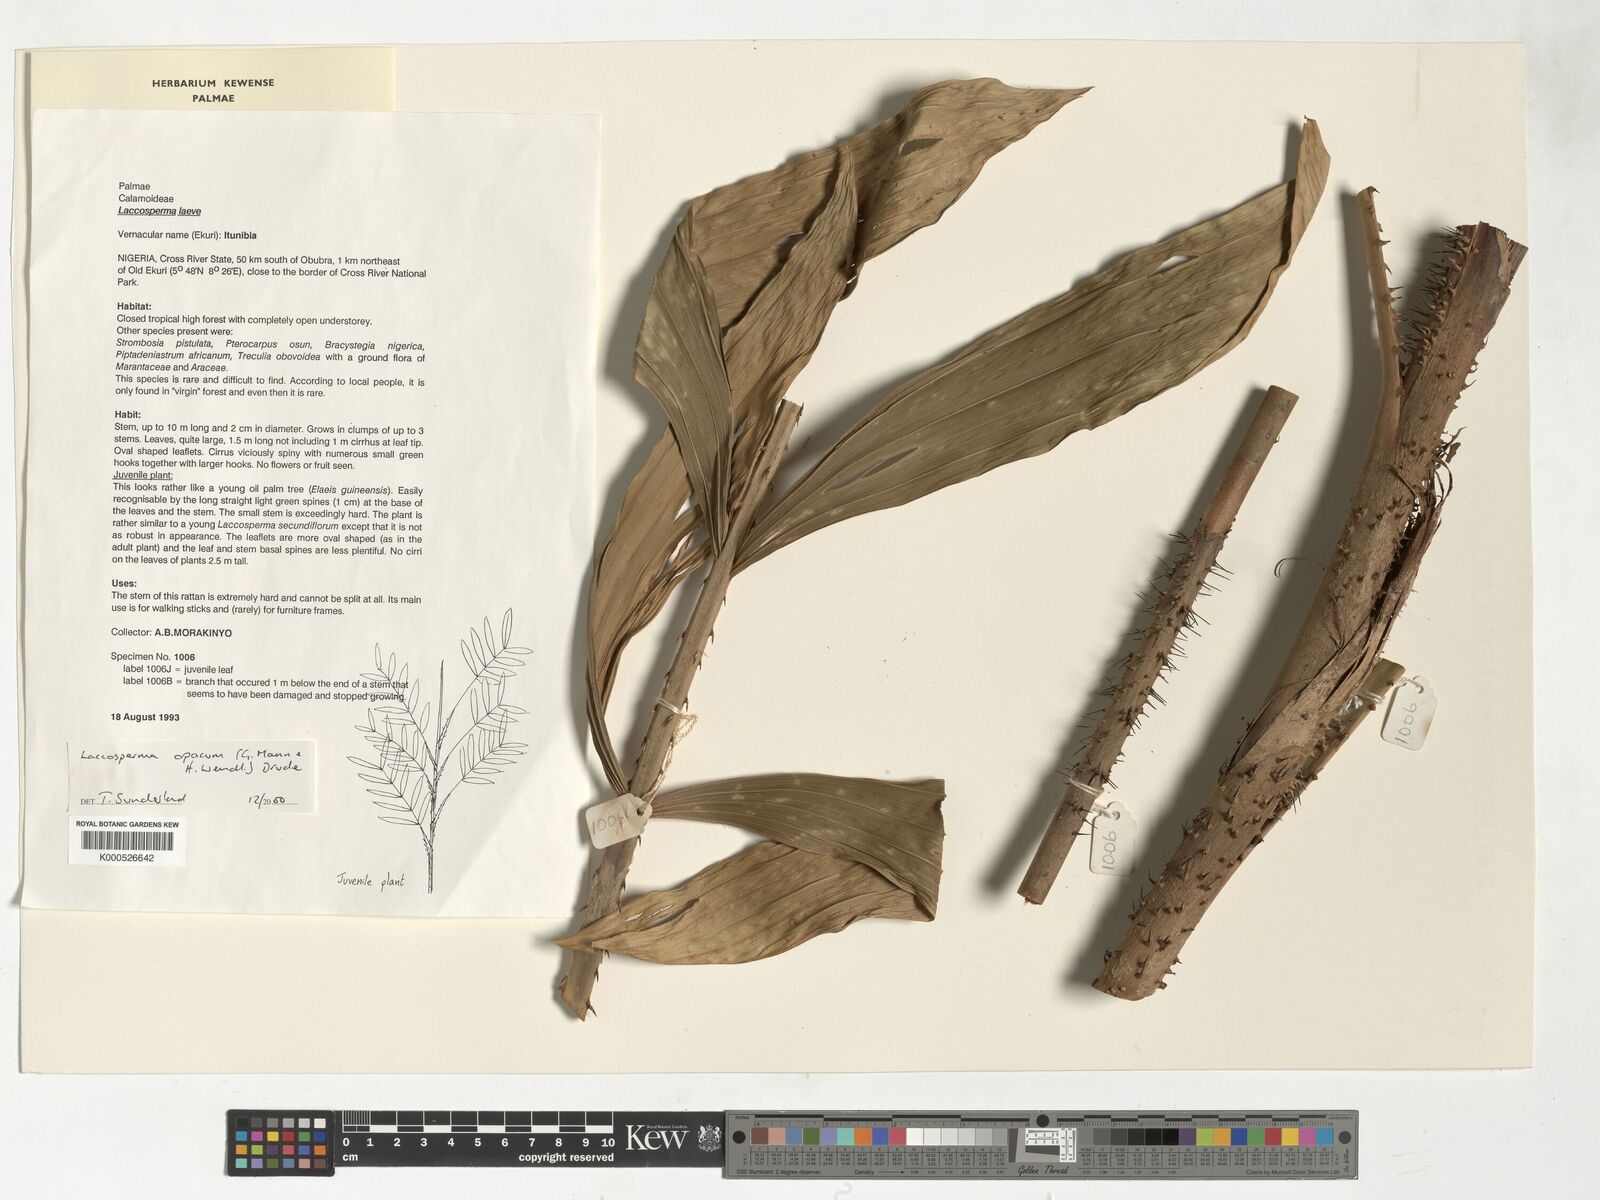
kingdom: Plantae
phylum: Tracheophyta
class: Liliopsida
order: Arecales
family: Arecaceae
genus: Laccosperma
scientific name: Laccosperma laeve
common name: Rattan
